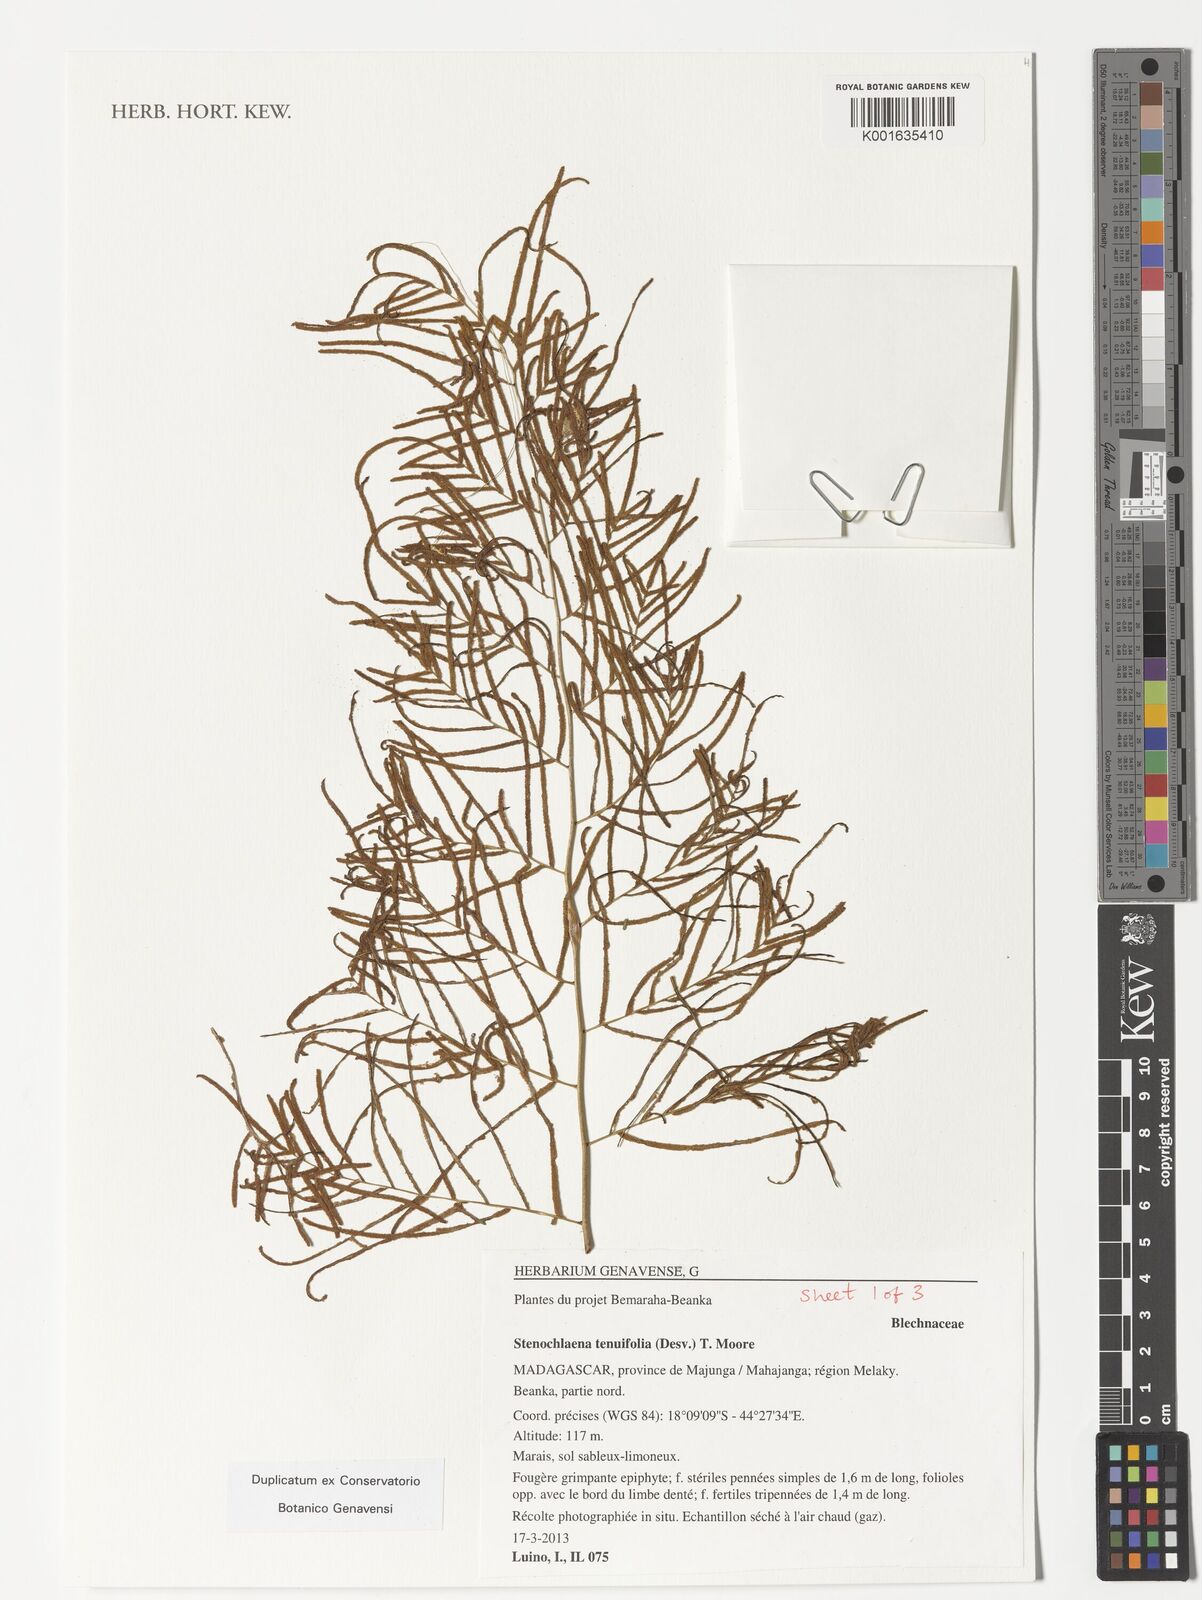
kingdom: Plantae
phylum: Tracheophyta
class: Polypodiopsida
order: Polypodiales
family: Blechnaceae
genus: Stenochlaena
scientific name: Stenochlaena tenuifolia
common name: Giant vine fern
